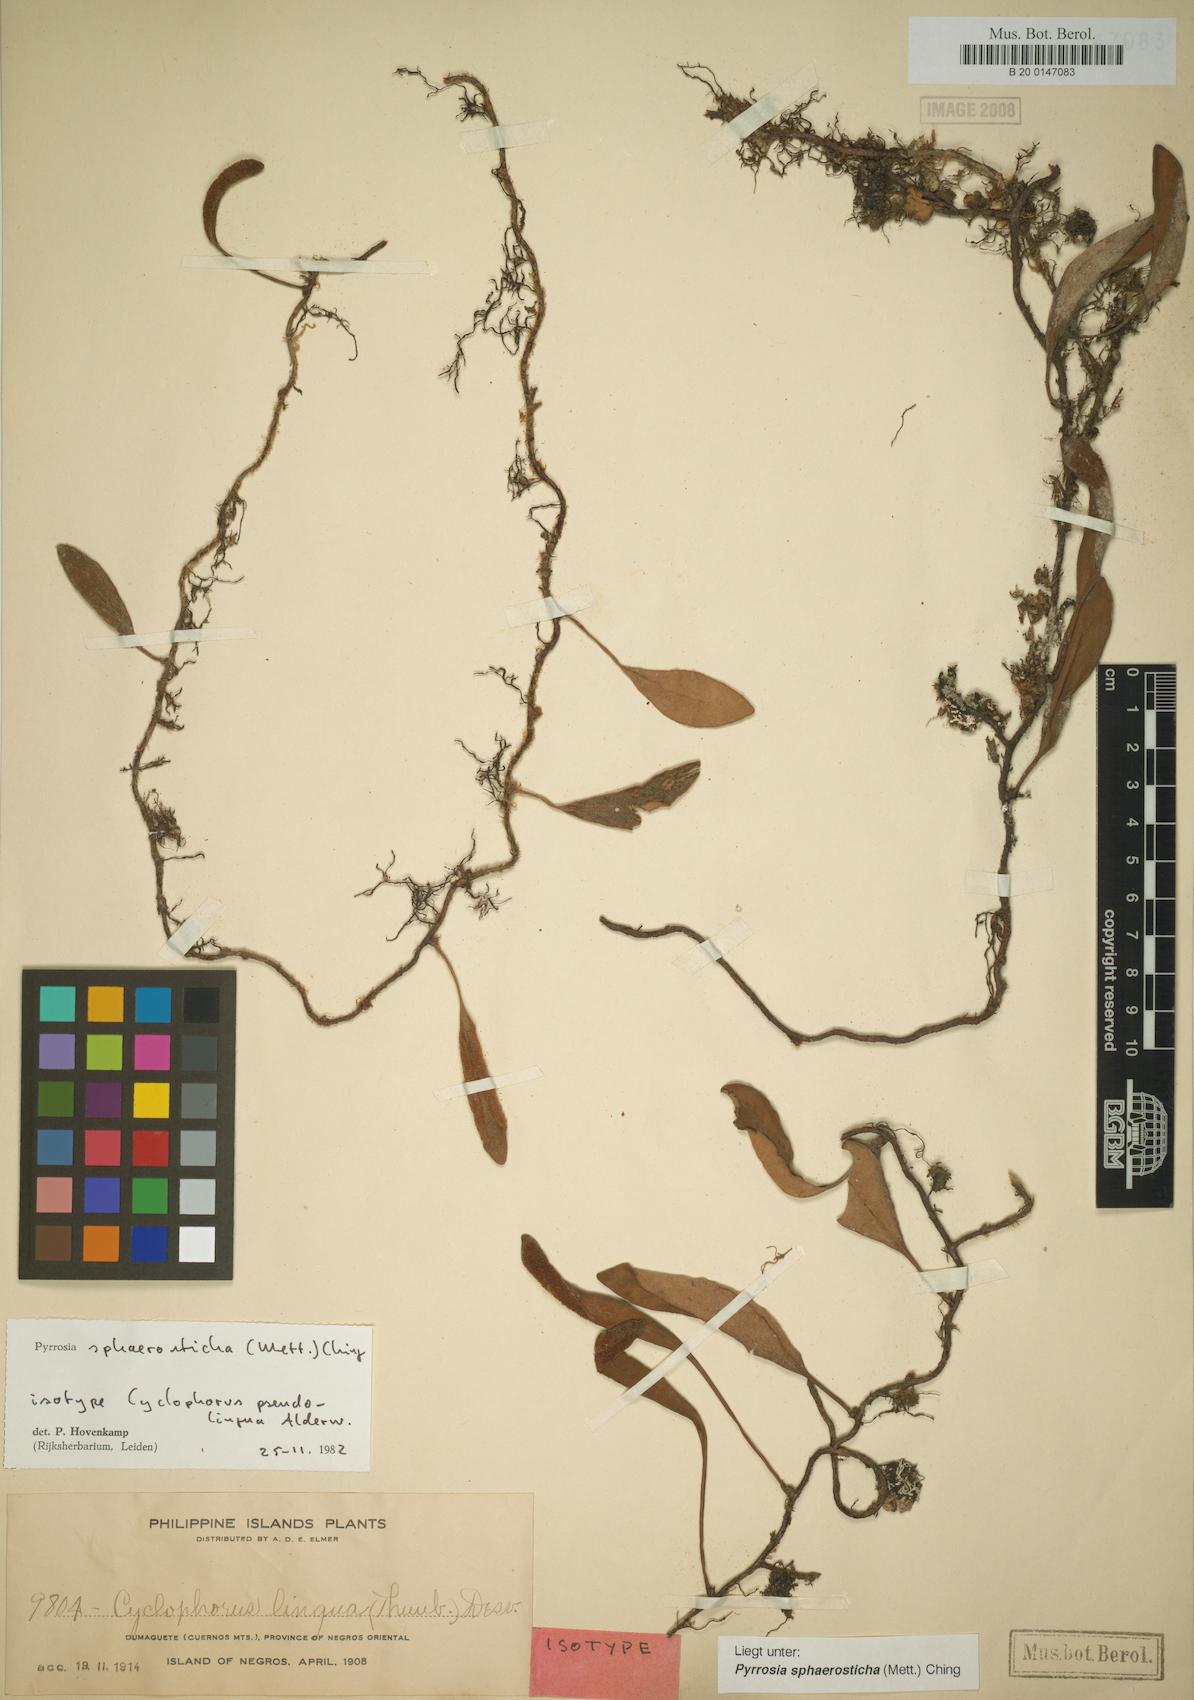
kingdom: Plantae
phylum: Tracheophyta
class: Polypodiopsida
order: Polypodiales
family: Polypodiaceae
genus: Pyrrosia
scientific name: Pyrrosia sphaerosticha
